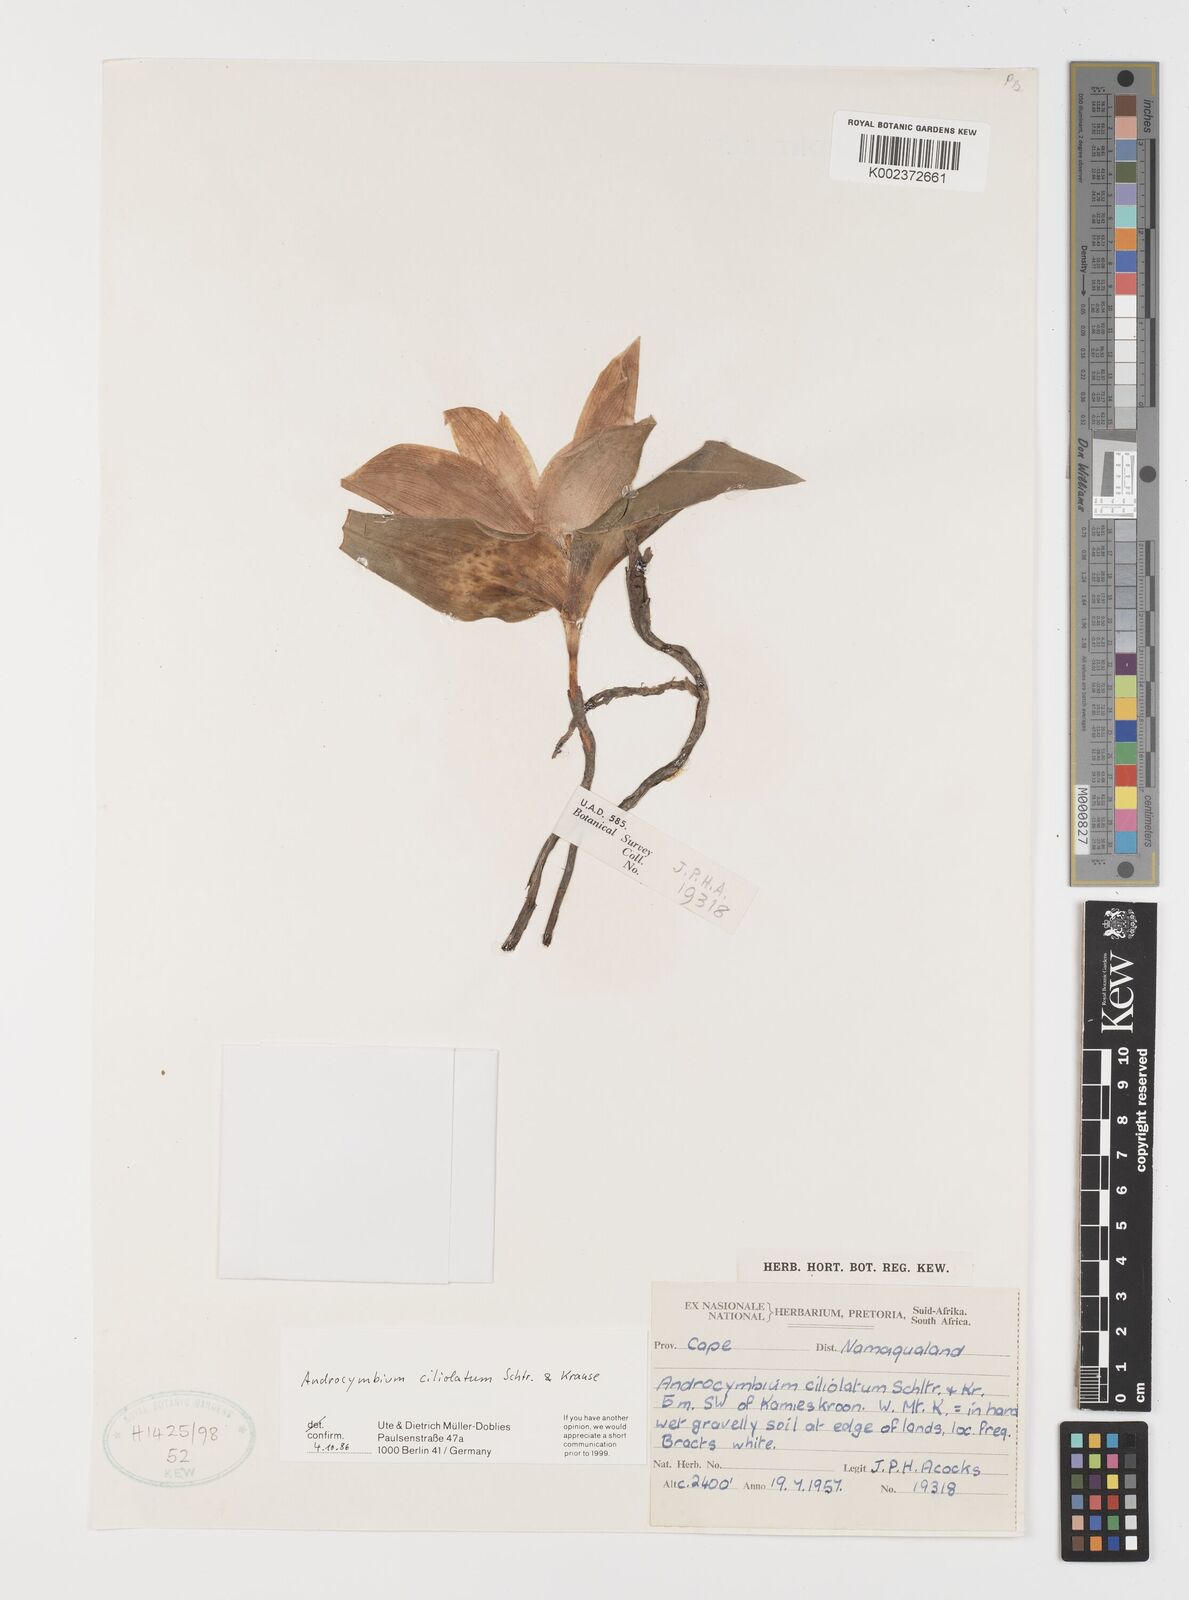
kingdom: Plantae
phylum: Tracheophyta
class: Liliopsida
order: Liliales
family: Colchicaceae
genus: Colchicum
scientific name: Colchicum capense
